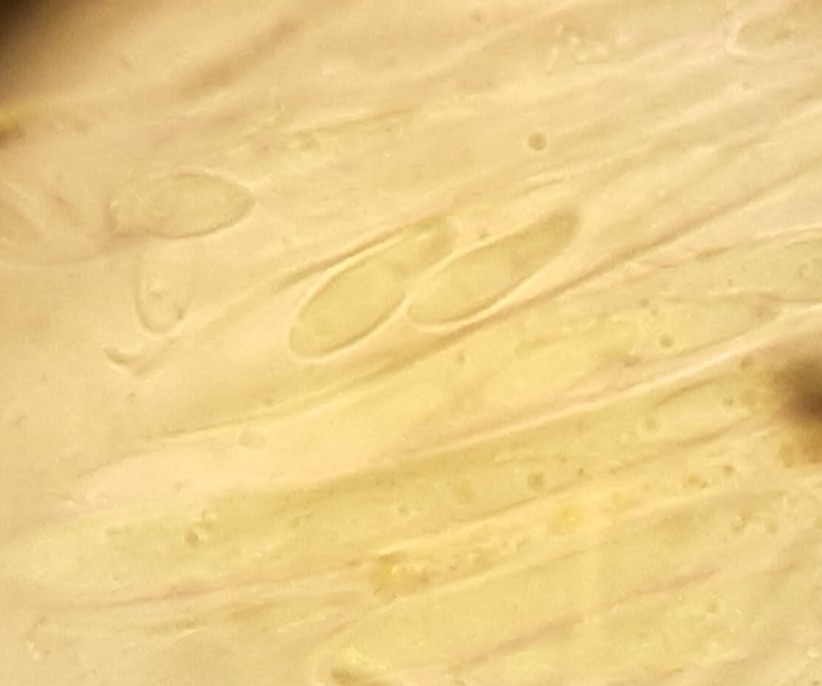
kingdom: Fungi
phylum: Ascomycota
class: Leotiomycetes
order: Helotiales
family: Lachnaceae
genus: Lachnellula
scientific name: Lachnellula subtilissima
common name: gran-frynseskive
